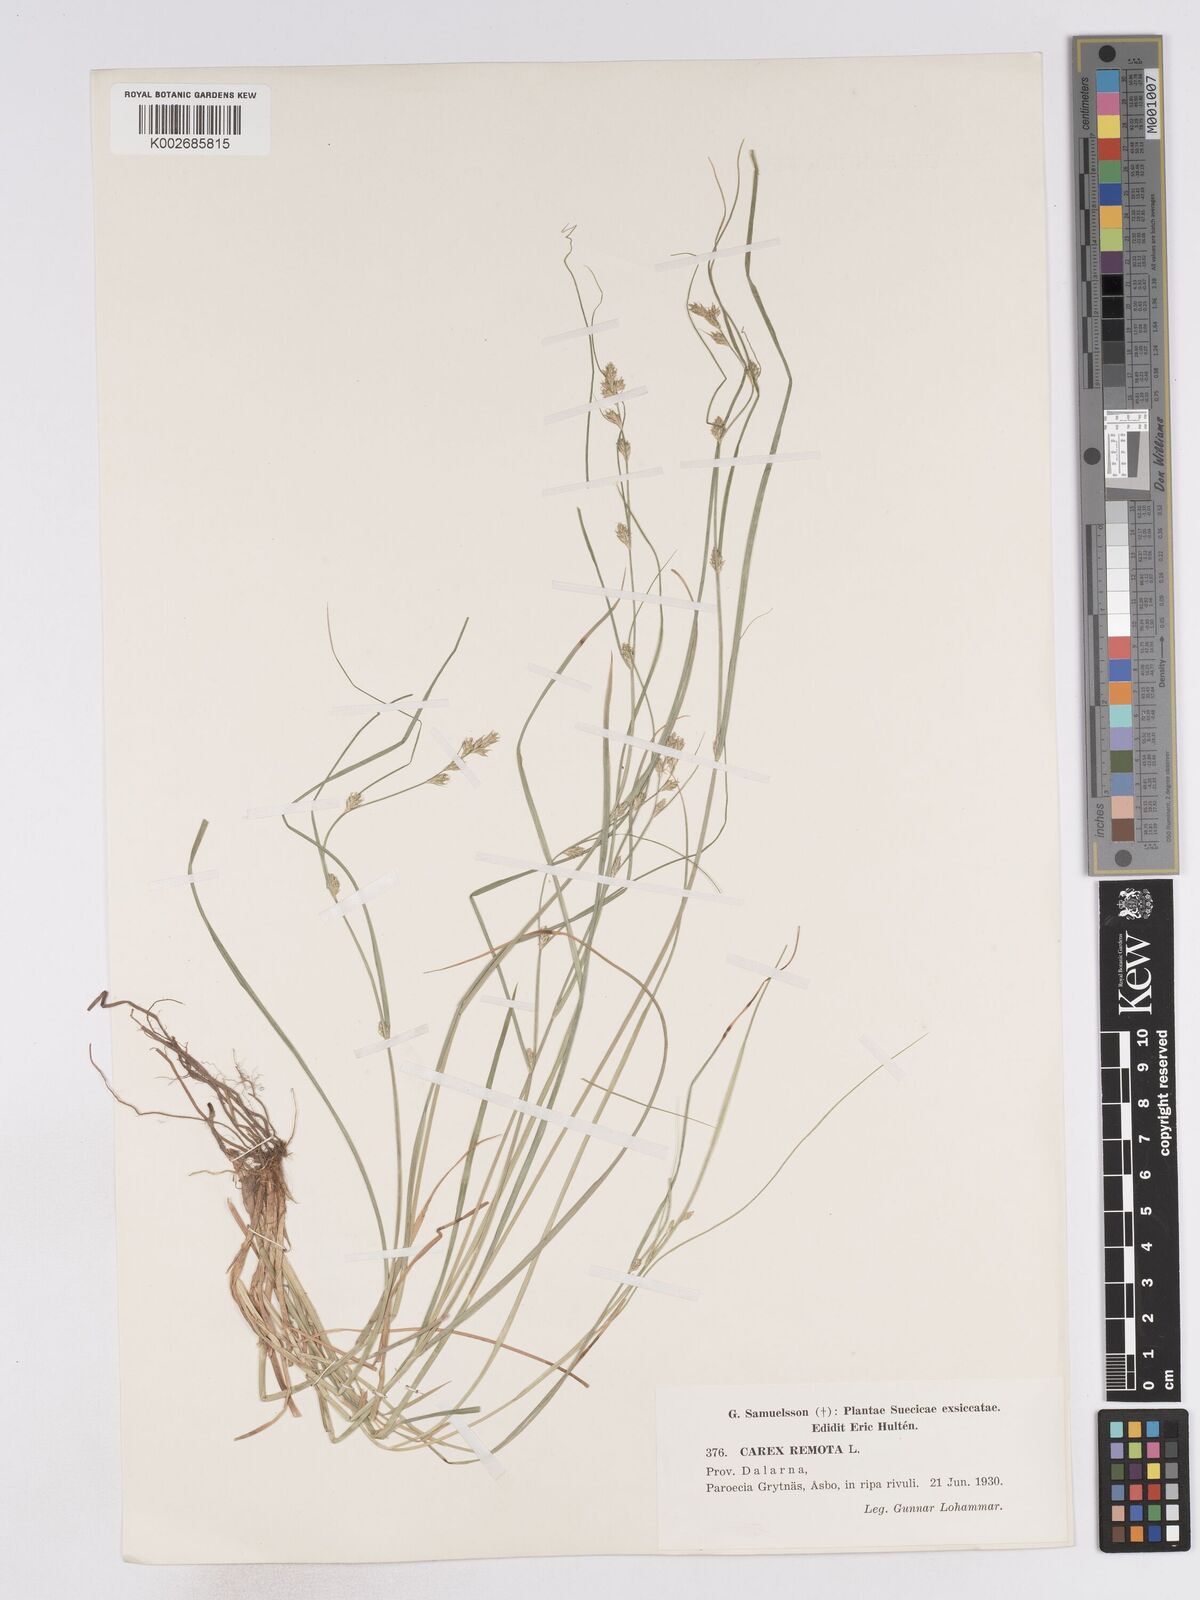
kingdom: Plantae
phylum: Tracheophyta
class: Liliopsida
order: Poales
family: Cyperaceae
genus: Carex
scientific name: Carex remota
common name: Remote sedge
